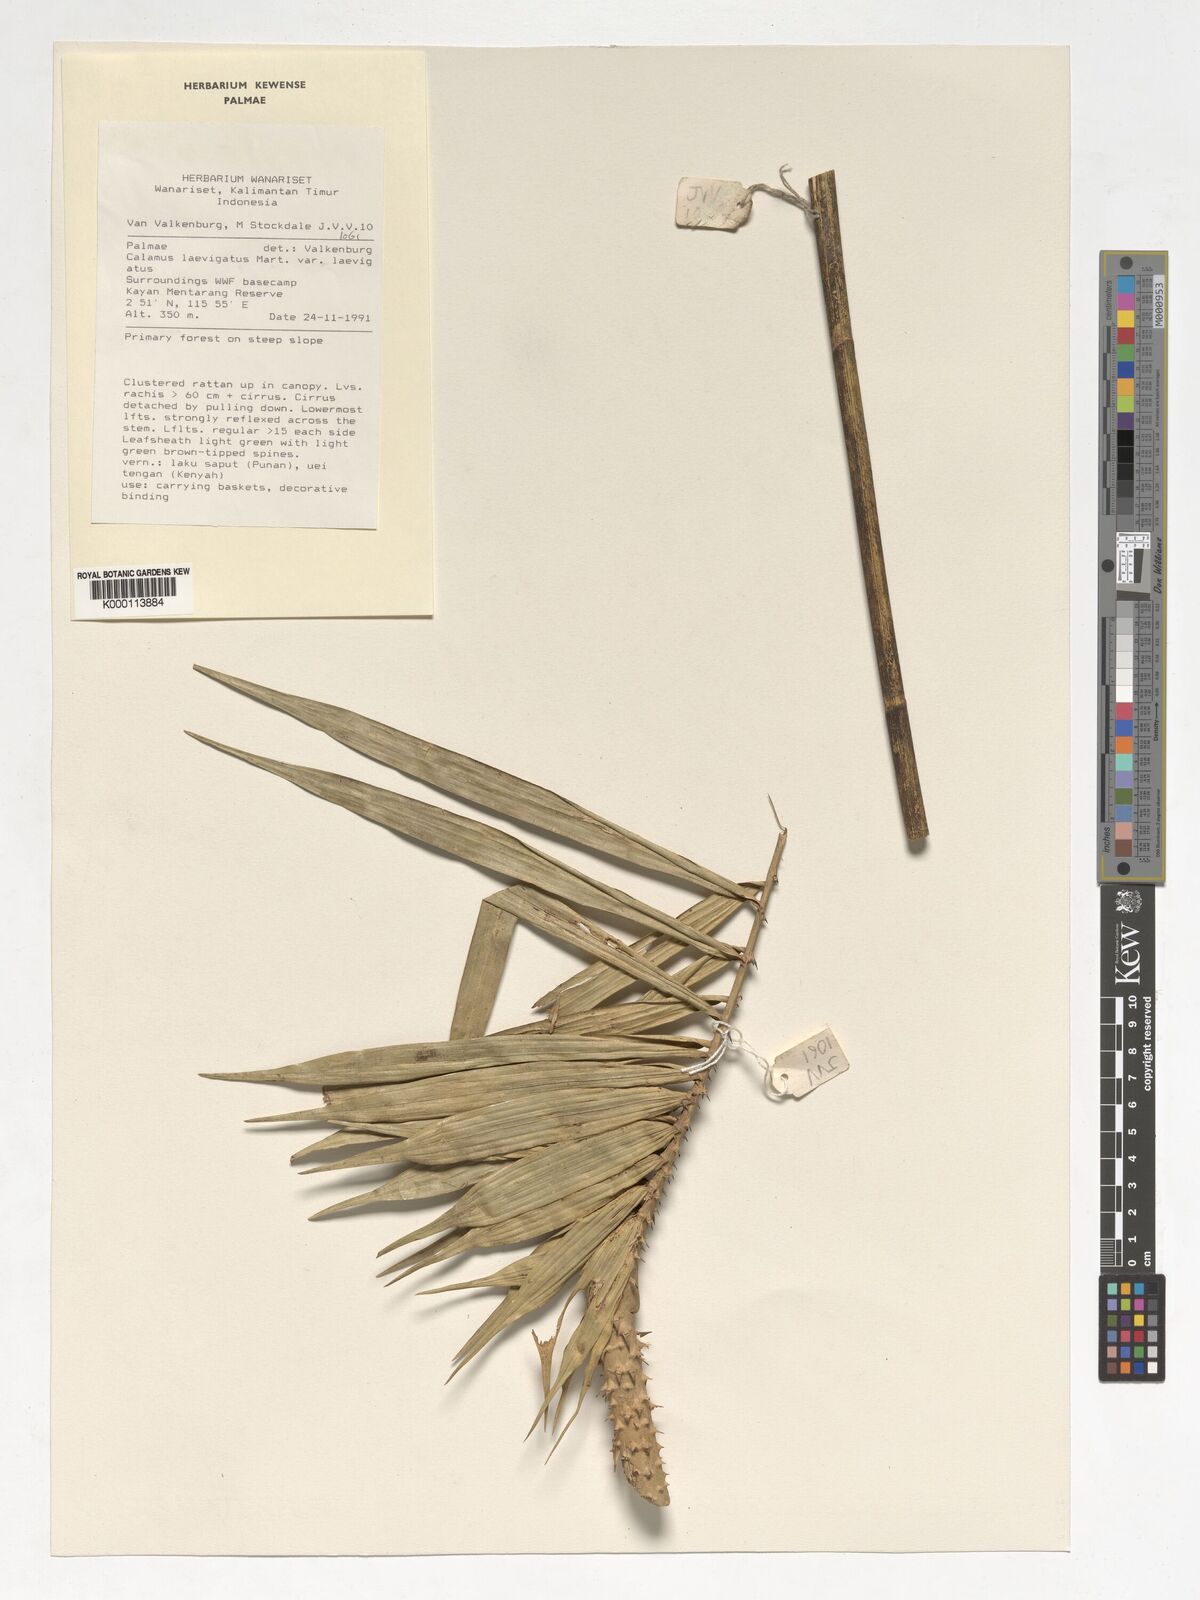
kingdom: Plantae
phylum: Tracheophyta
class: Liliopsida
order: Arecales
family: Arecaceae
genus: Calamus
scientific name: Calamus
